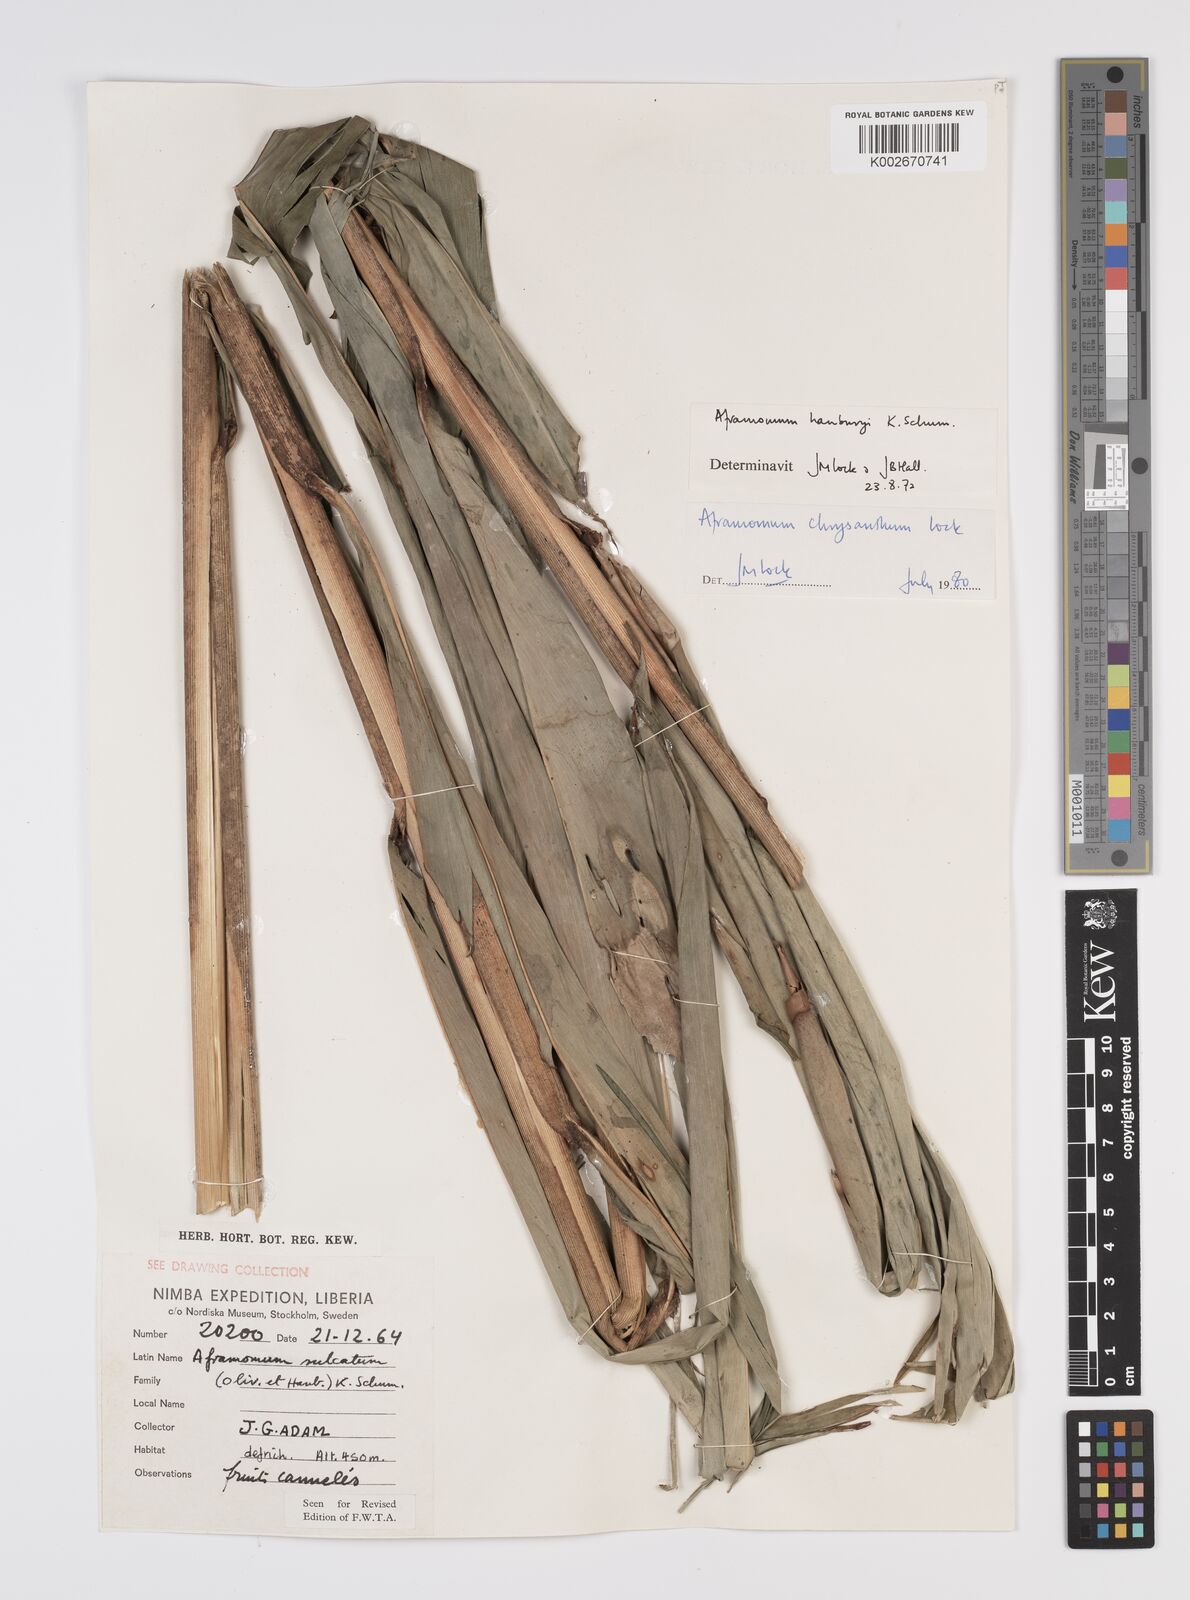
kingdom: Plantae
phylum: Tracheophyta
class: Liliopsida
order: Zingiberales
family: Zingiberaceae
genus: Aframomum
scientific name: Aframomum chrysanthum
